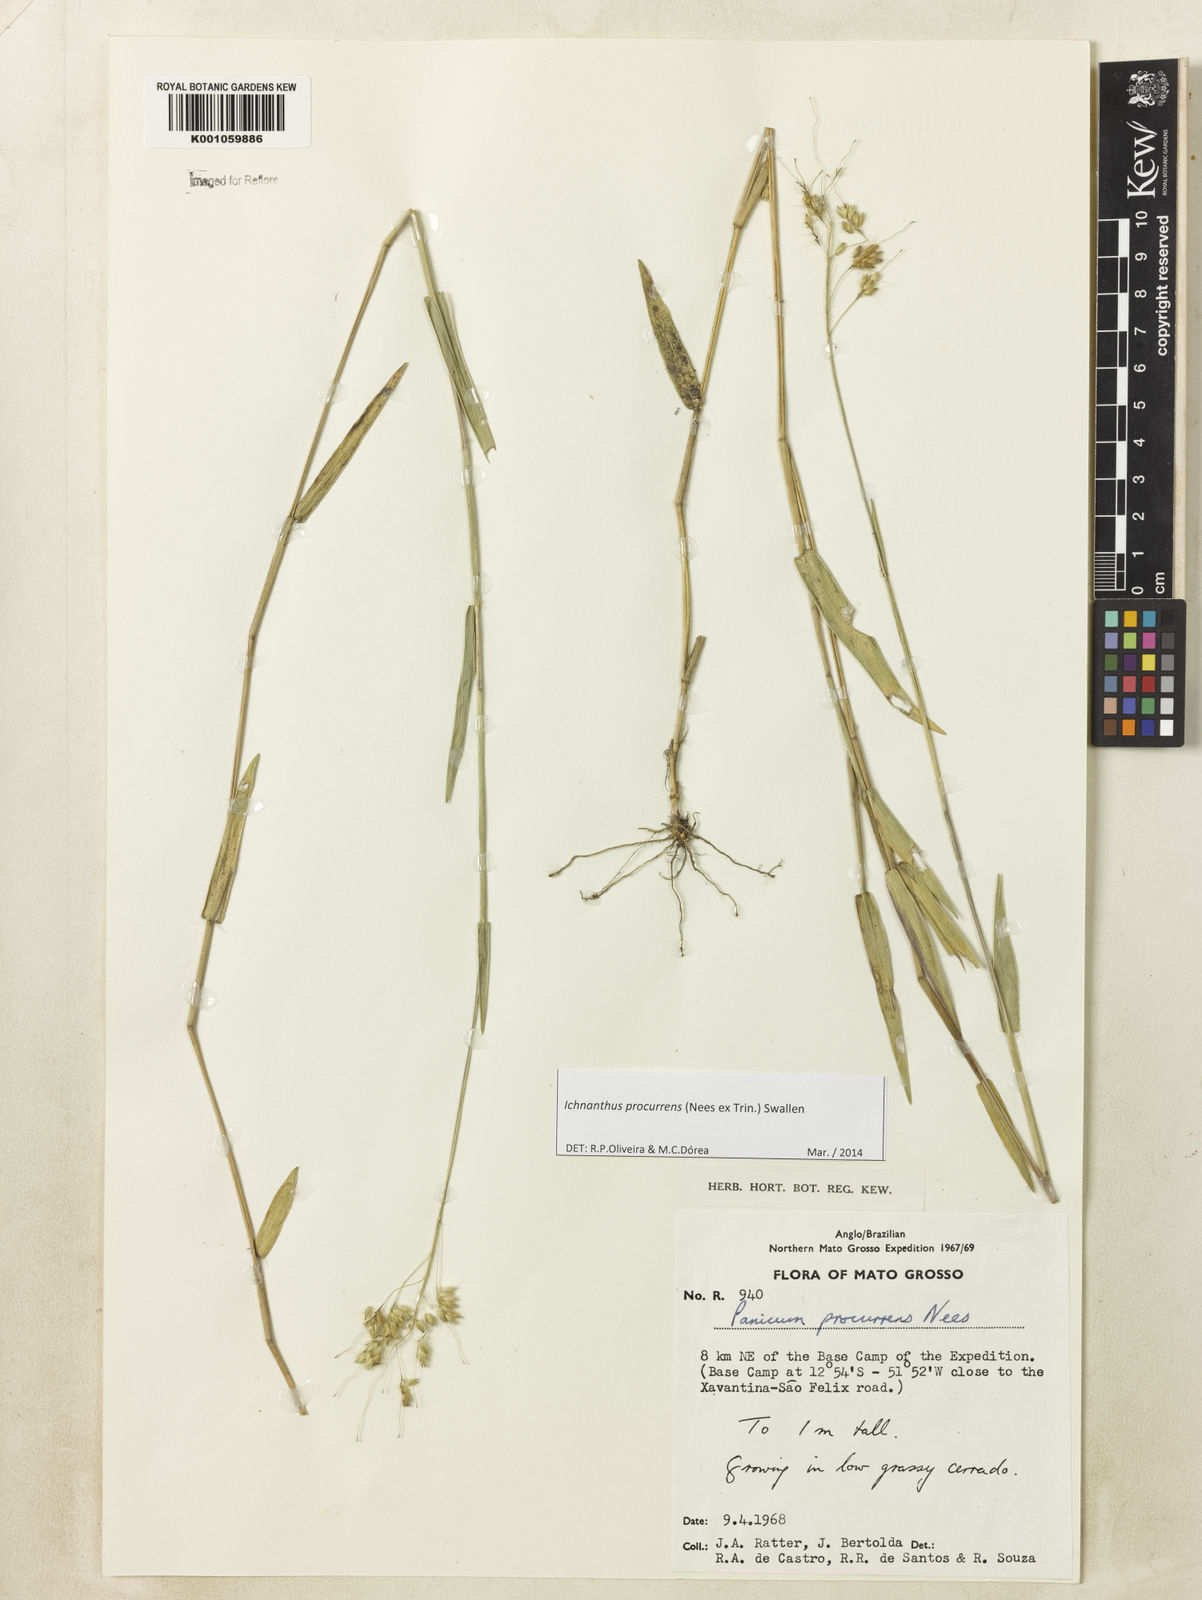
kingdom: Plantae
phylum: Tracheophyta
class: Liliopsida
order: Poales
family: Poaceae
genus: Oedochloa
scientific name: Oedochloa procurrens
